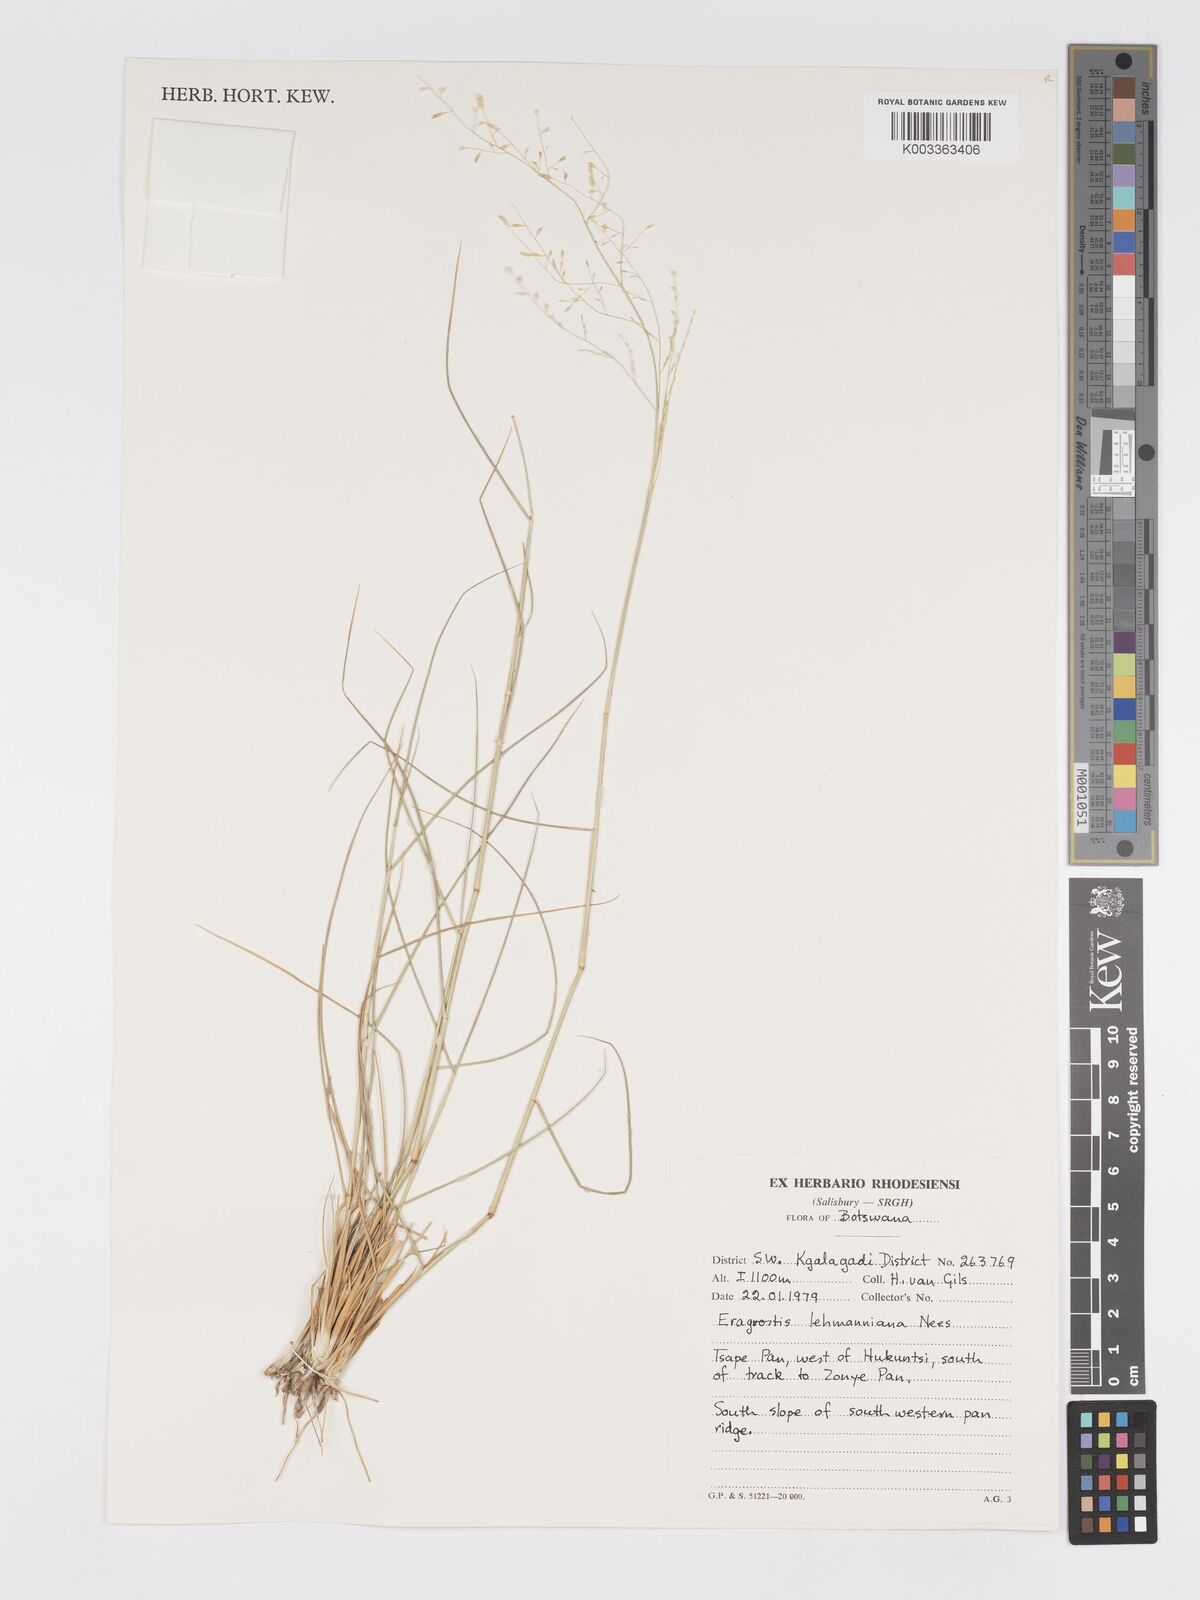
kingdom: Plantae
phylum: Tracheophyta
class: Liliopsida
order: Poales
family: Poaceae
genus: Eragrostis
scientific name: Eragrostis lehmanniana
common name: Lehmann lovegrass
